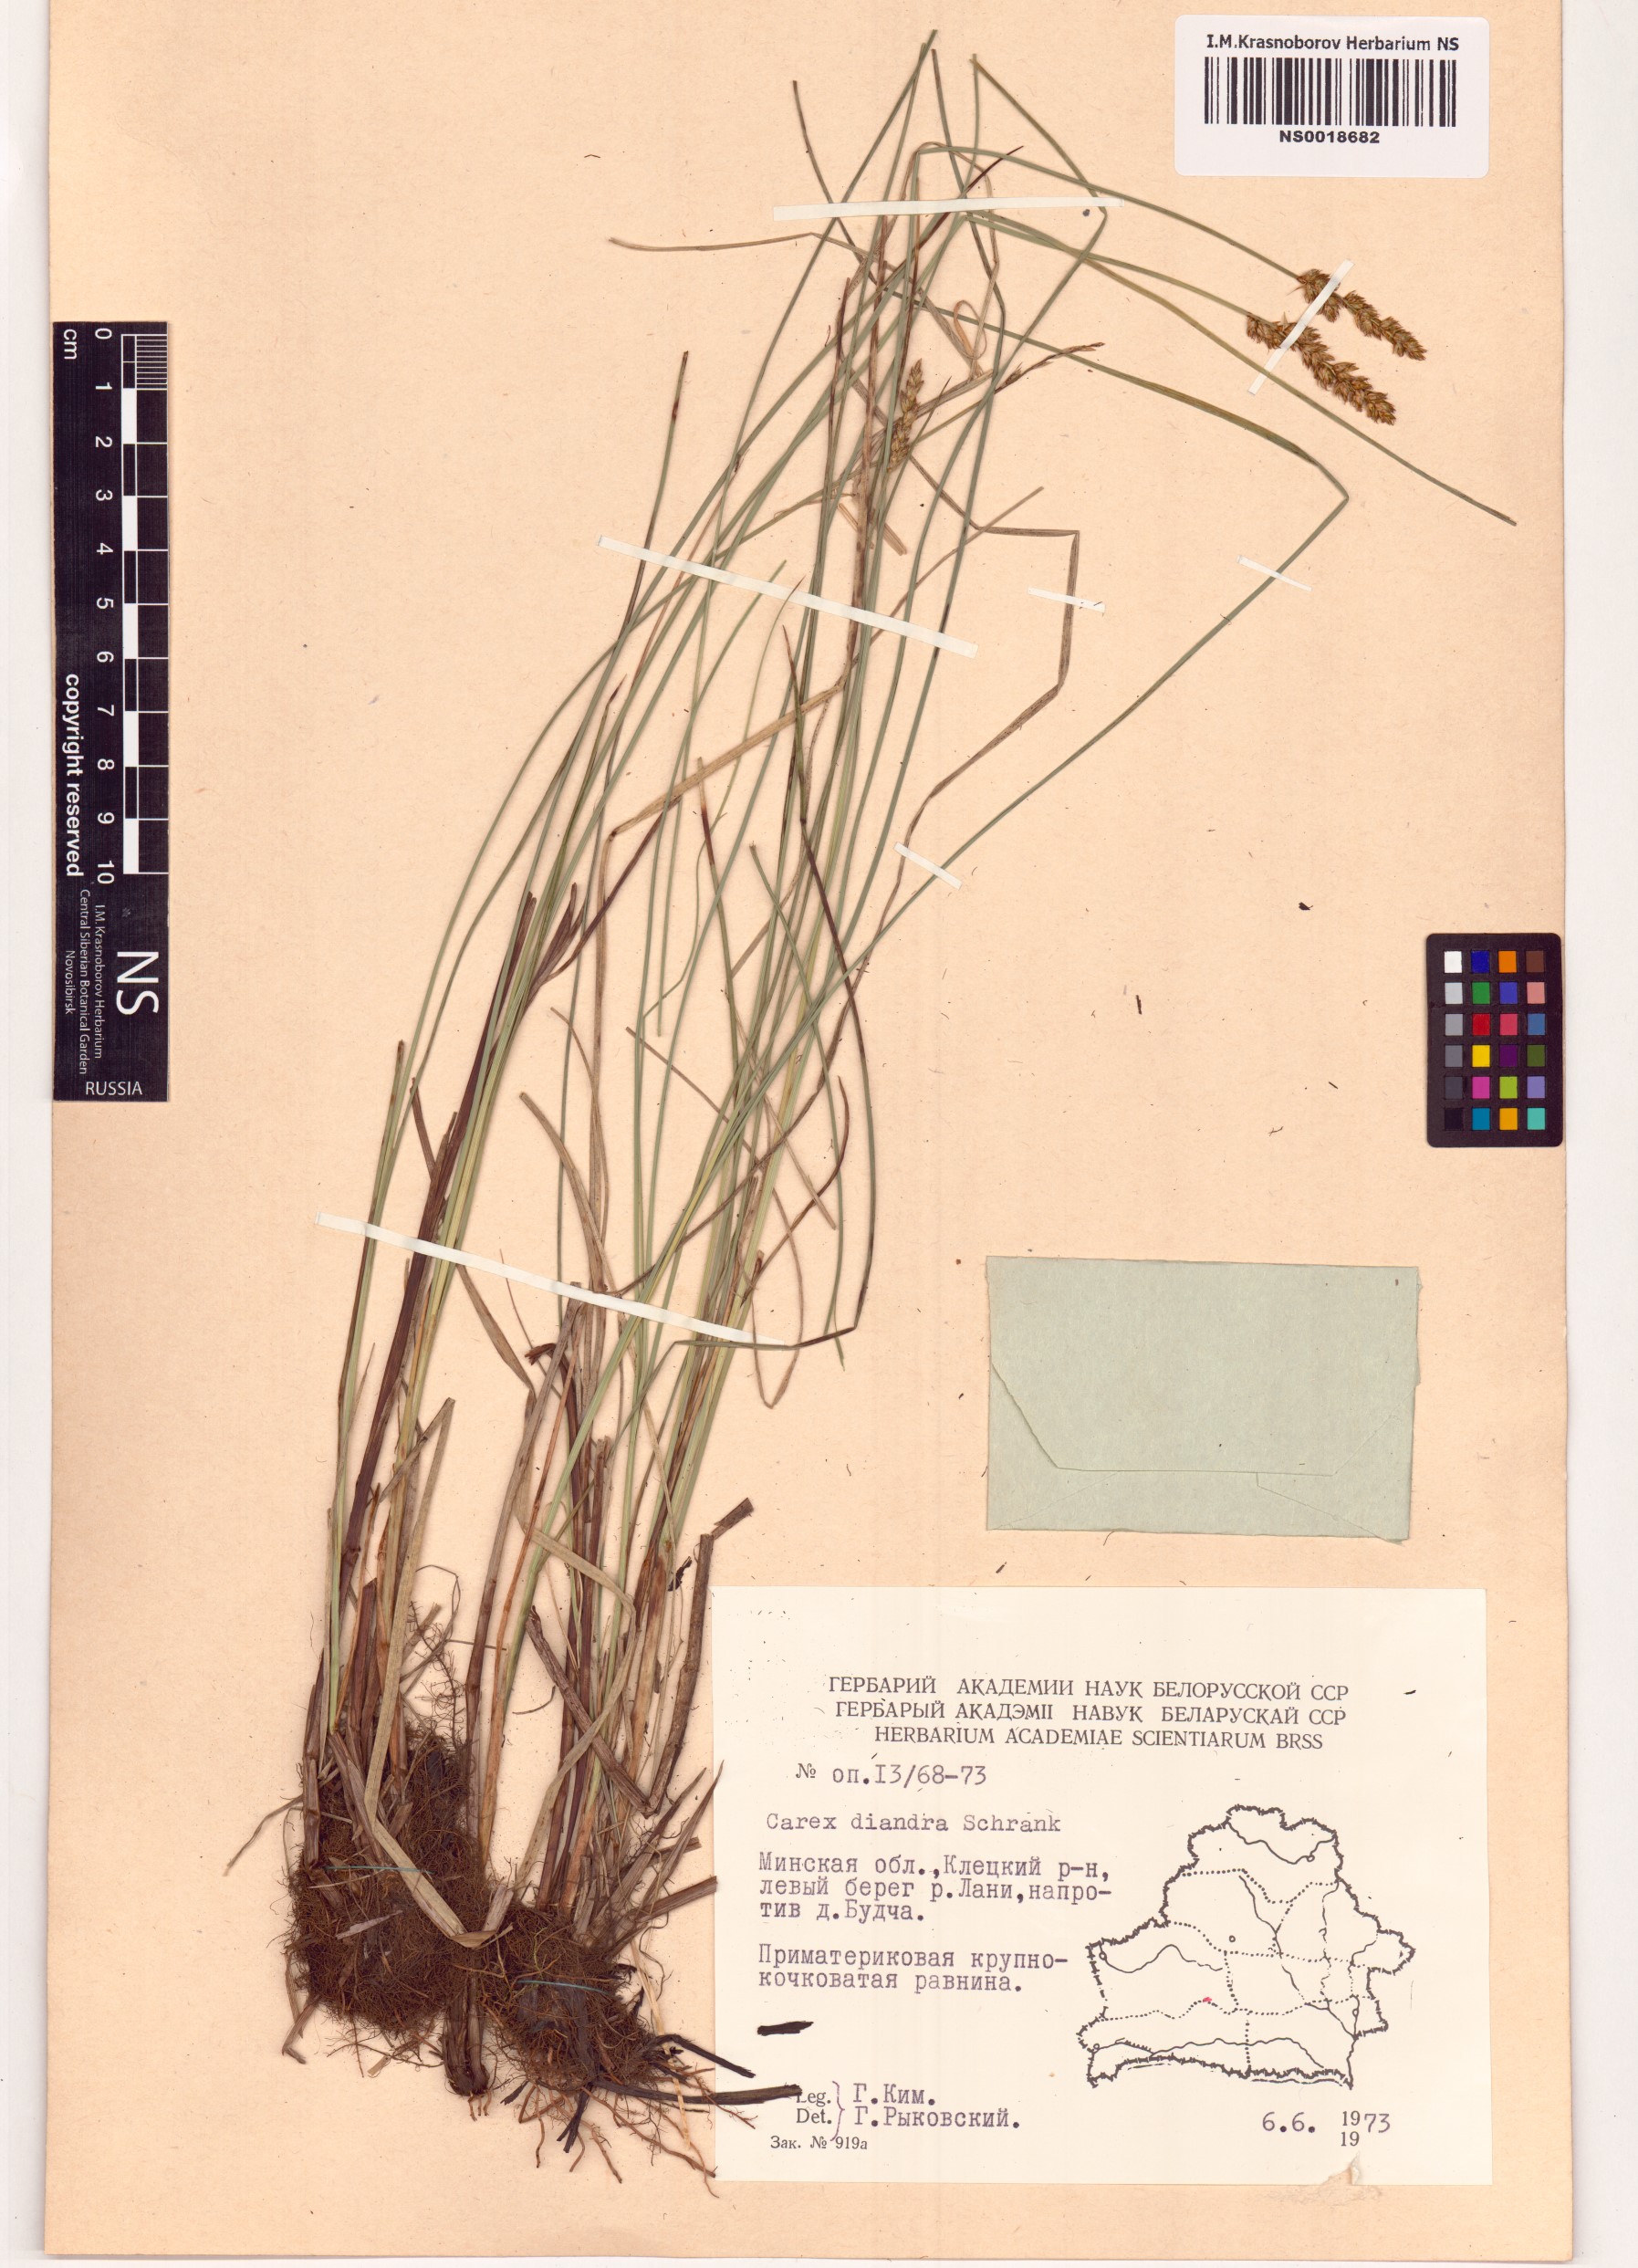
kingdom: Plantae
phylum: Tracheophyta
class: Liliopsida
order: Poales
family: Cyperaceae
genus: Carex
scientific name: Carex diandra
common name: Lesser tussock-sedge
